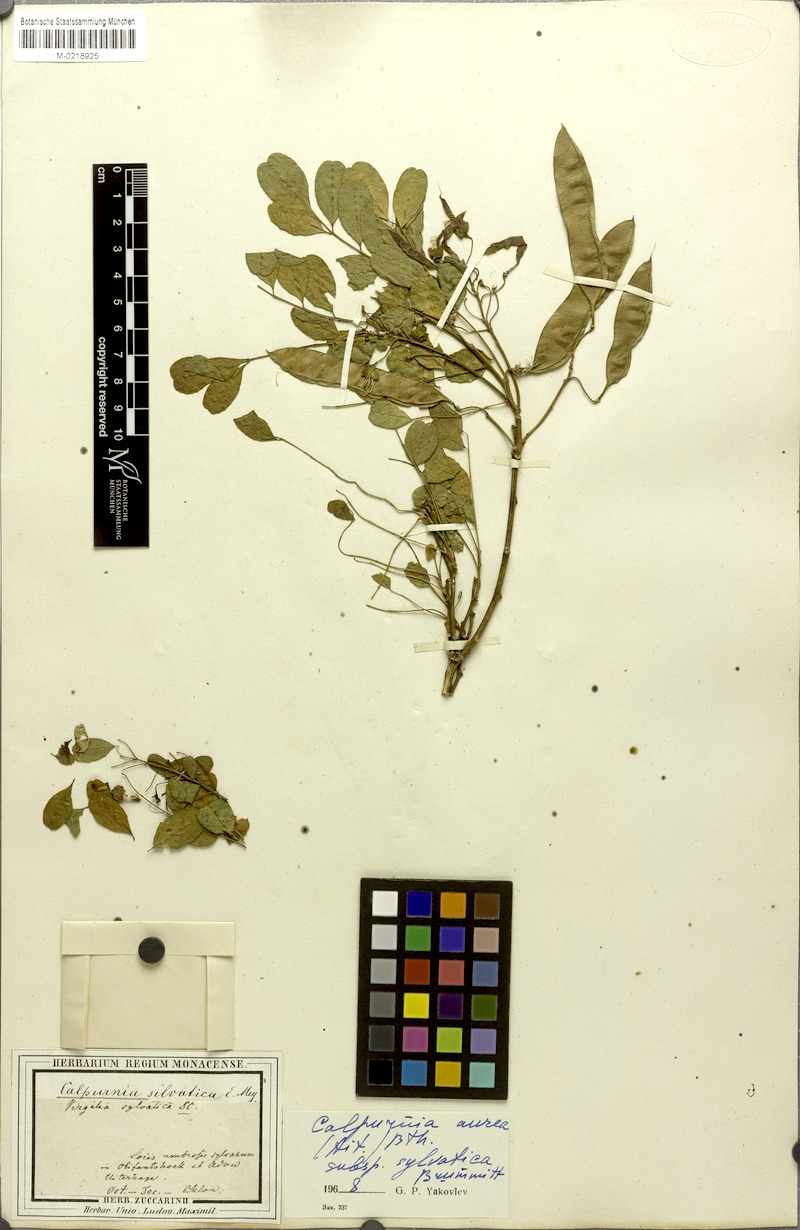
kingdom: Plantae
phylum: Tracheophyta
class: Magnoliopsida
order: Fabales
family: Fabaceae
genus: Calpurnia
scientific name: Calpurnia aurea
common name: Wild laburnum
